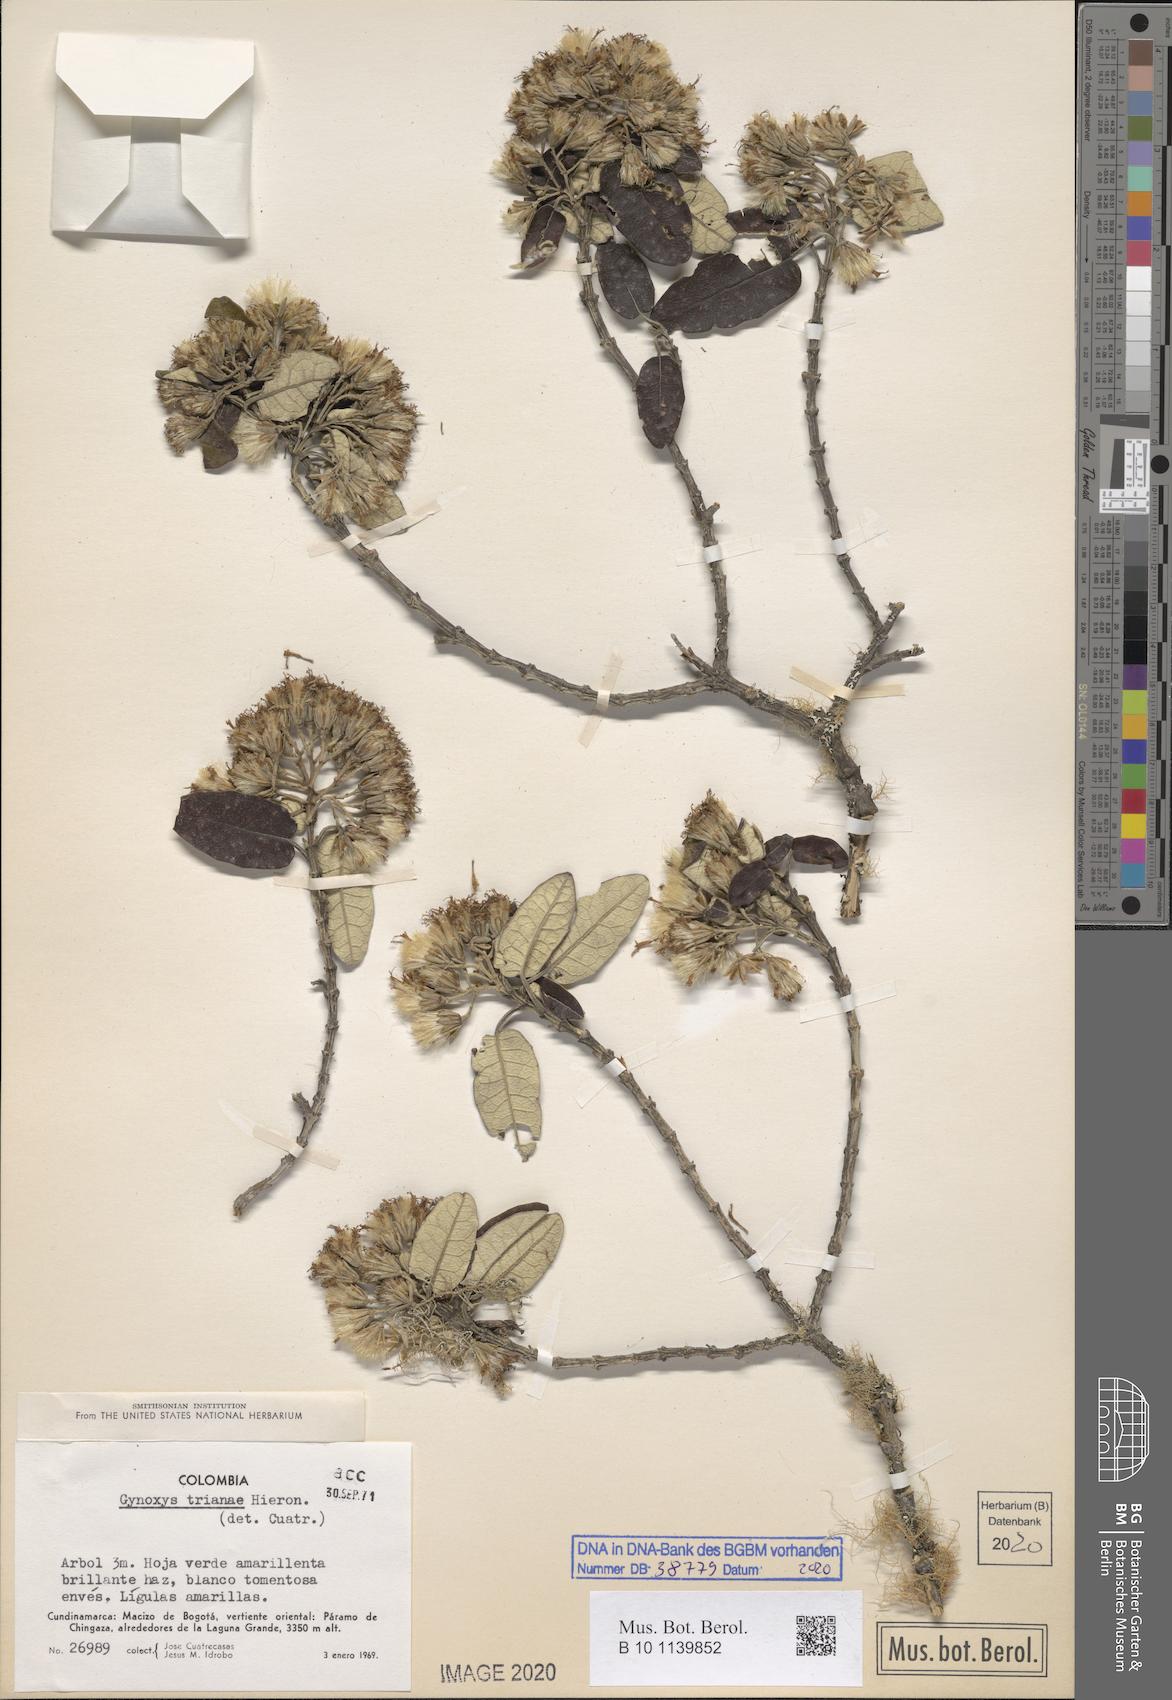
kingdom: Plantae
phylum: Tracheophyta
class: Magnoliopsida
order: Asterales
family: Asteraceae
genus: Gynoxys
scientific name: Gynoxys trianae
